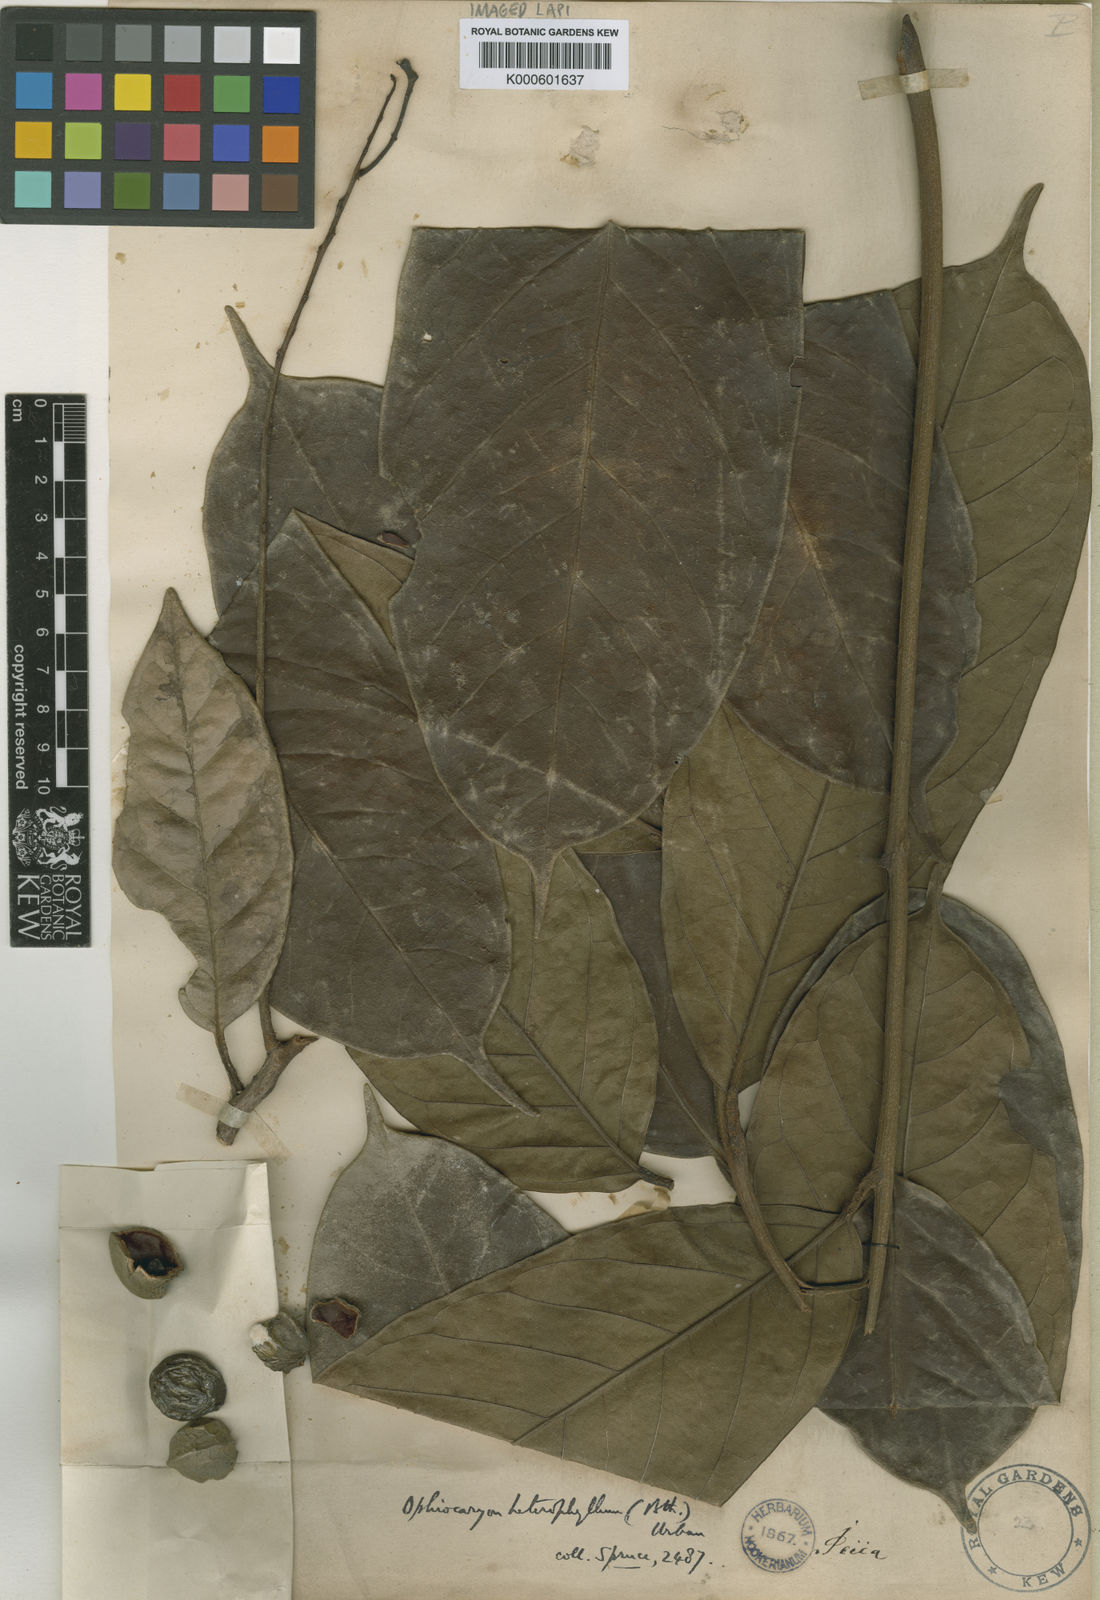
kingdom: Plantae
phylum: Tracheophyta
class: Magnoliopsida
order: Proteales
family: Sabiaceae
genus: Ophiocaryon
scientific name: Ophiocaryon heterophyllum
